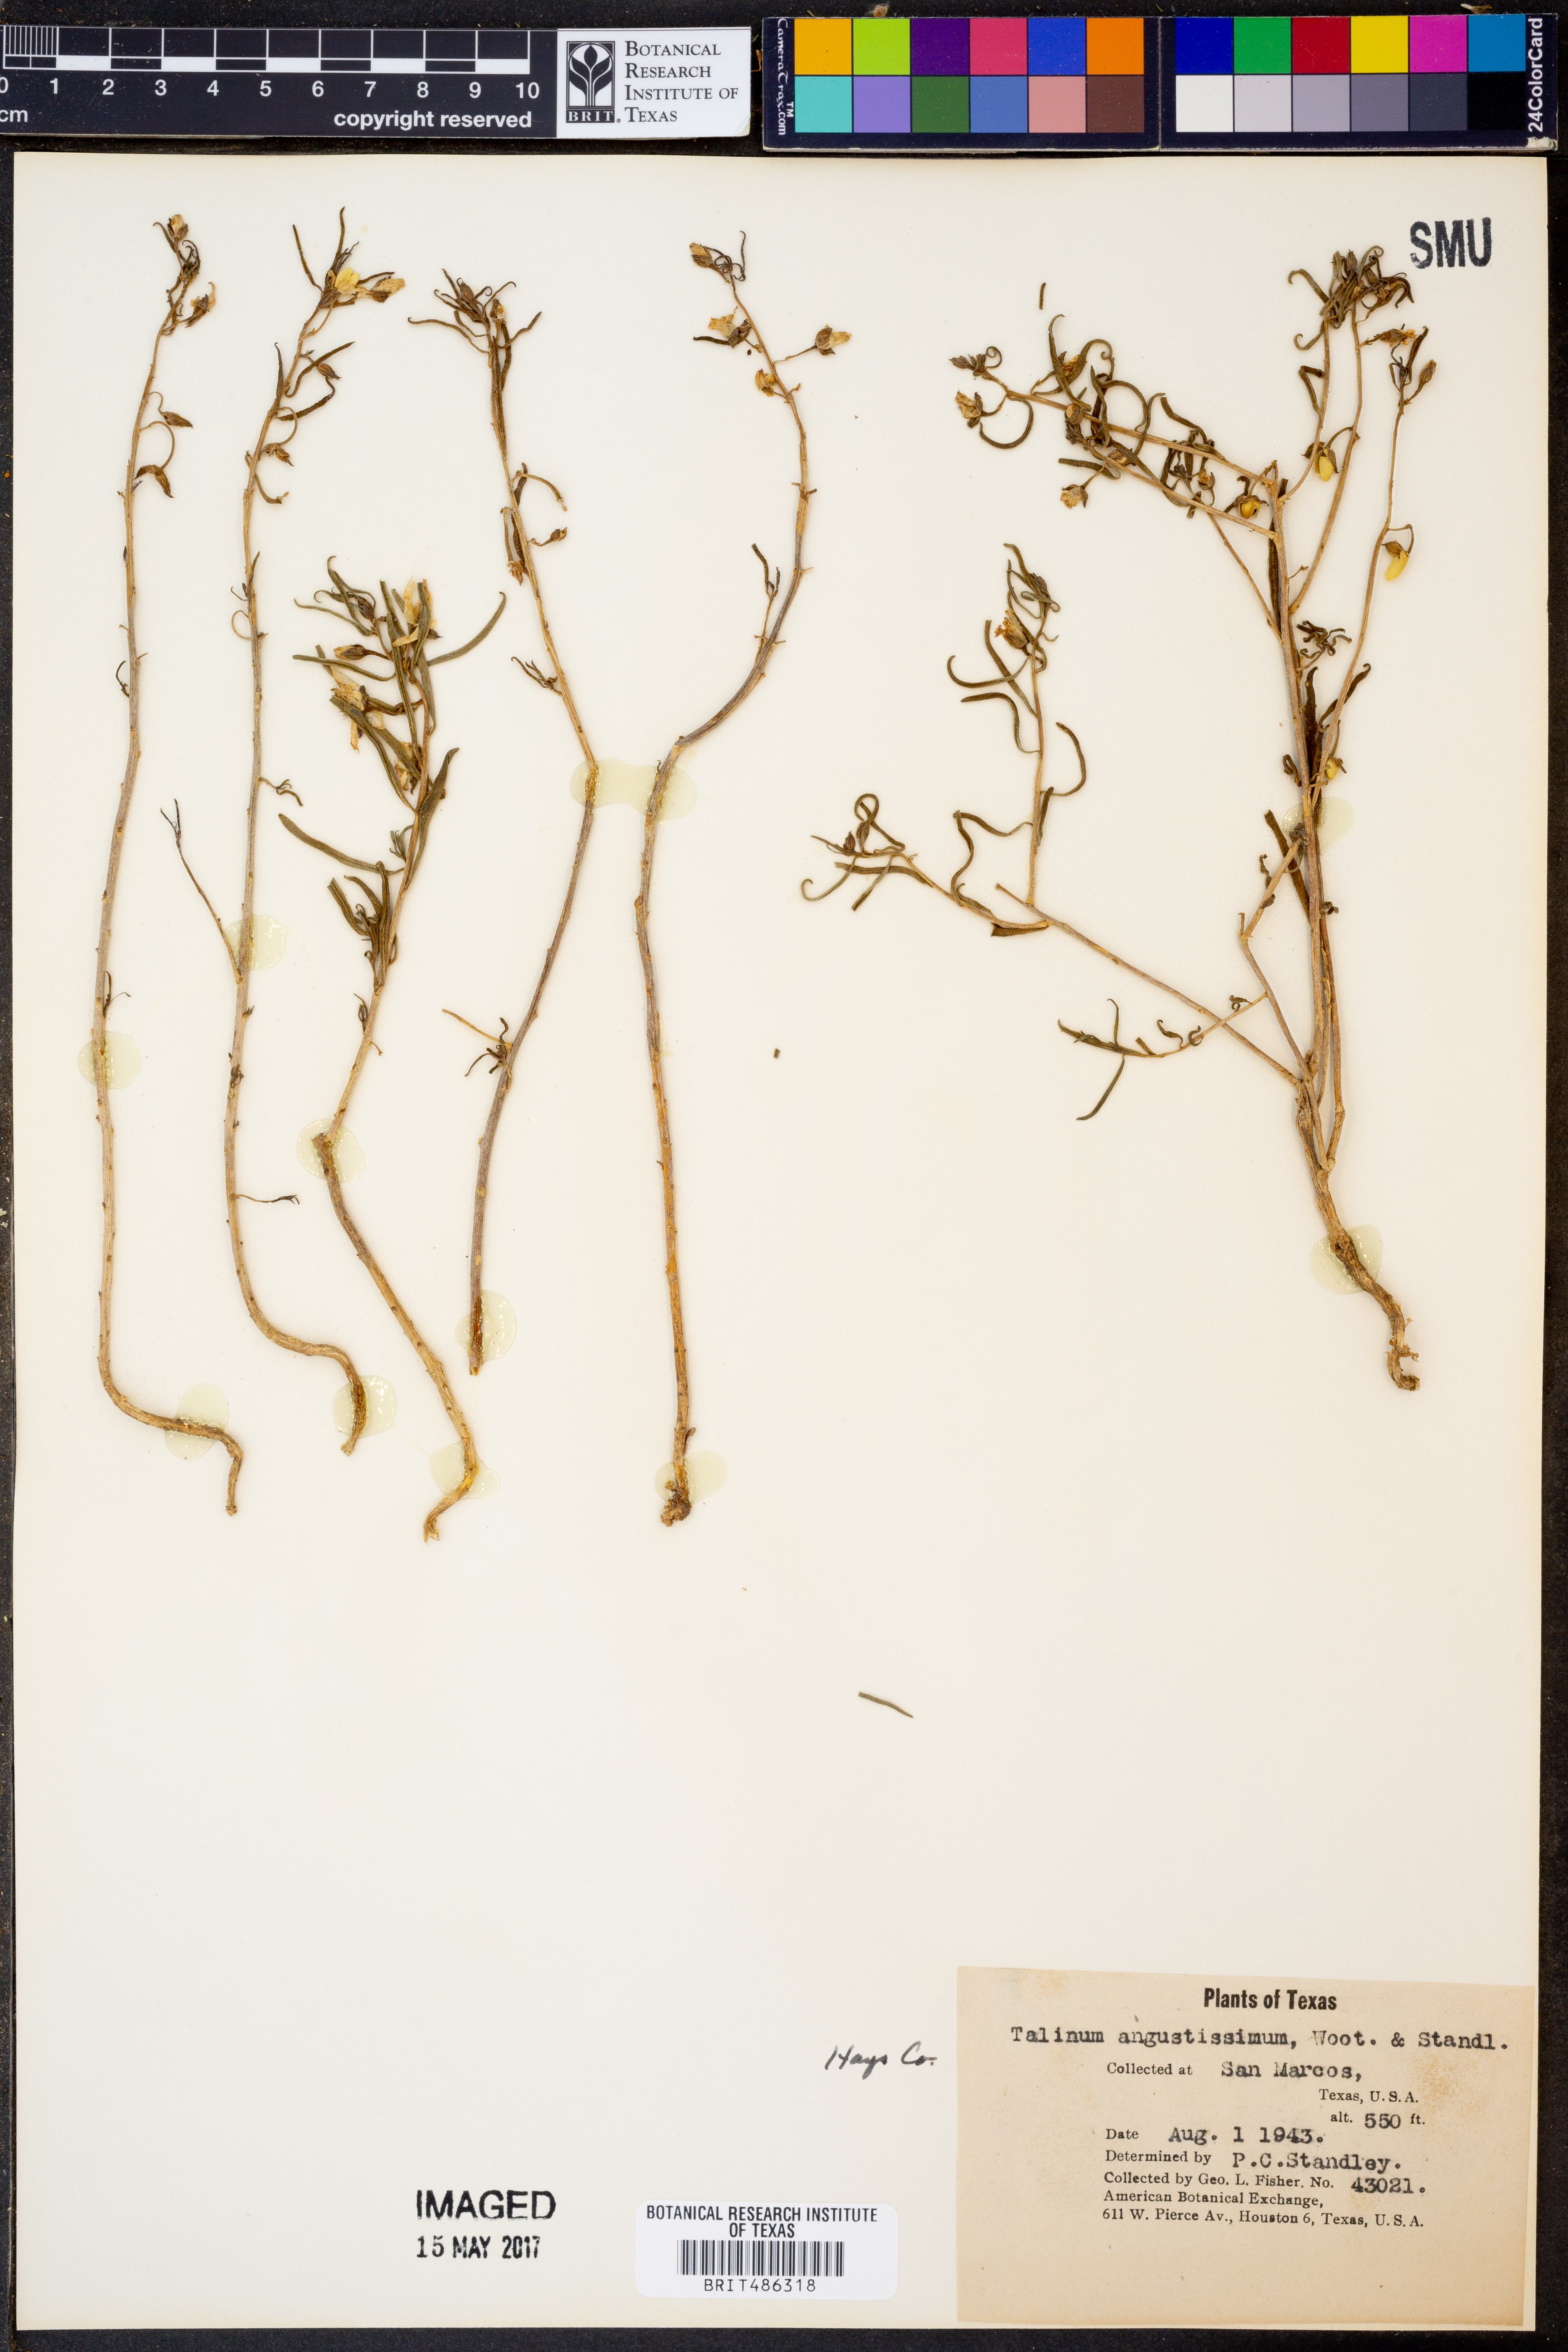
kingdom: Plantae
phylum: Tracheophyta
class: Magnoliopsida
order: Caryophyllales
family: Montiaceae
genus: Phemeranthus
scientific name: Phemeranthus aurantiacus
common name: Orange fameflower
